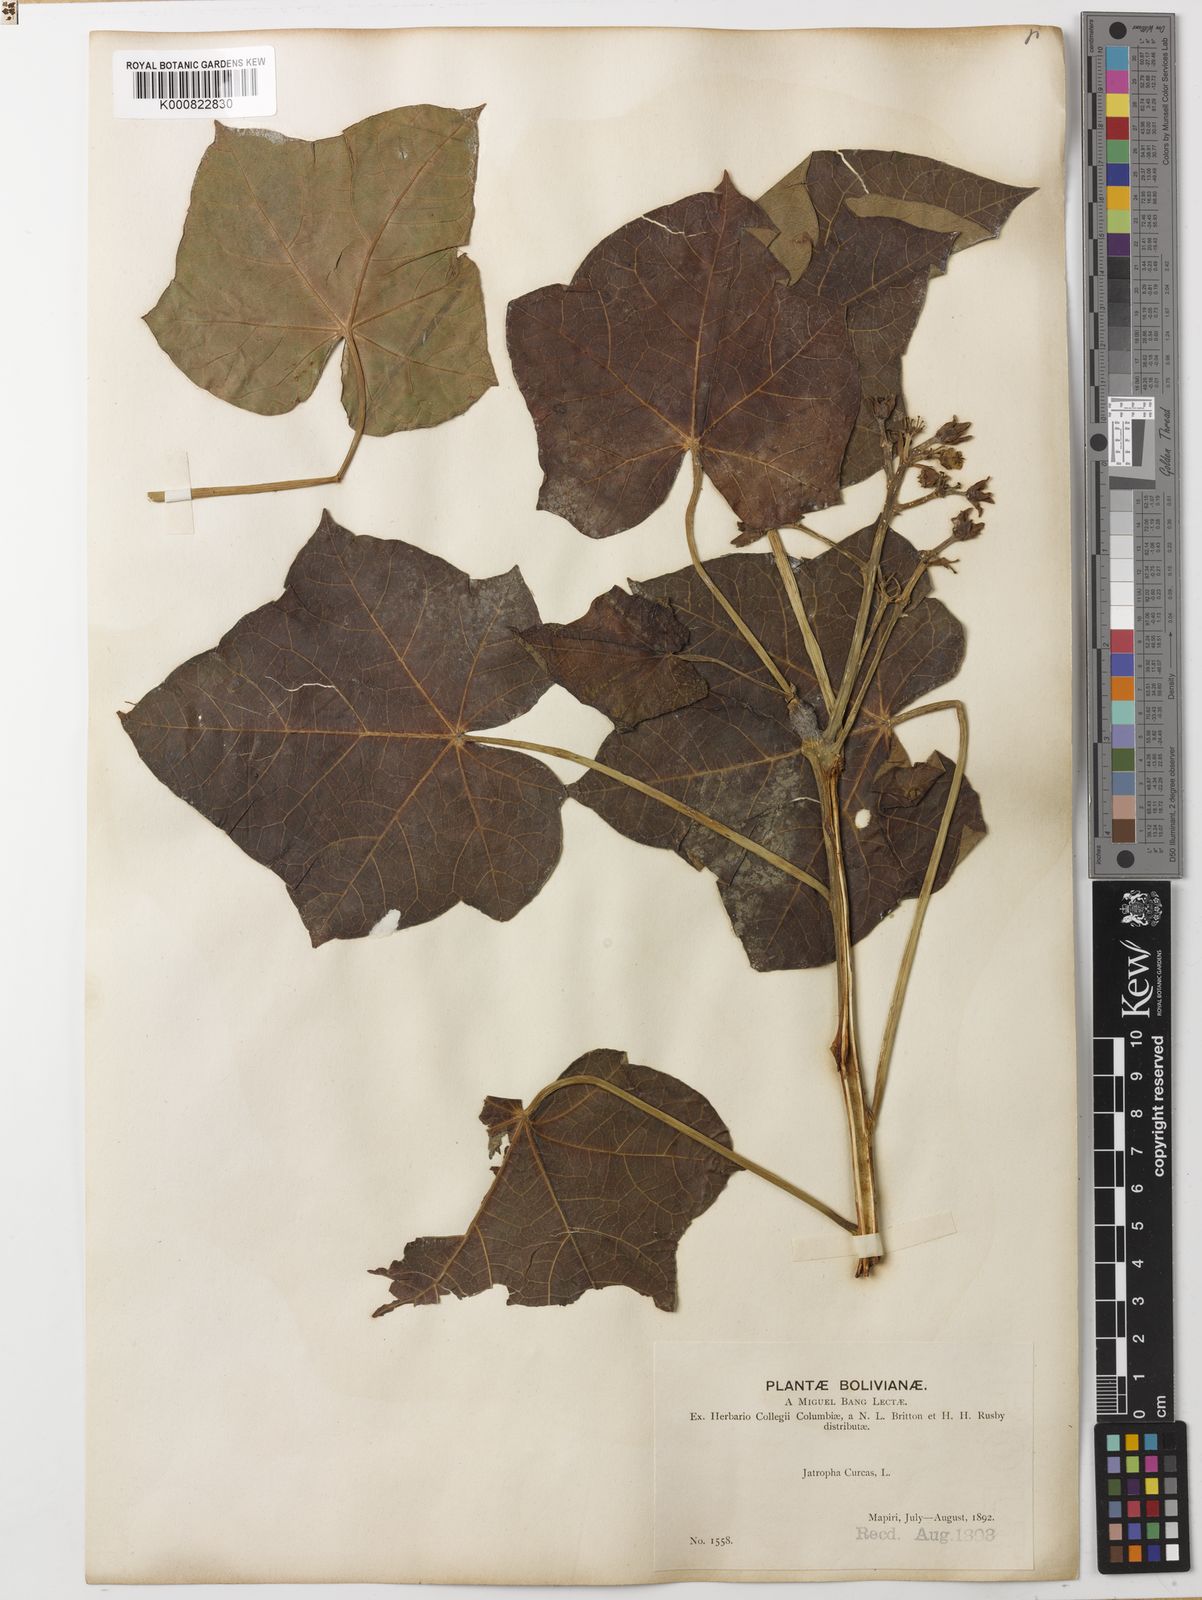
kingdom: Plantae
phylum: Tracheophyta
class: Magnoliopsida
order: Malpighiales
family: Euphorbiaceae
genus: Jatropha
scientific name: Jatropha curcas
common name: Barbados nut
